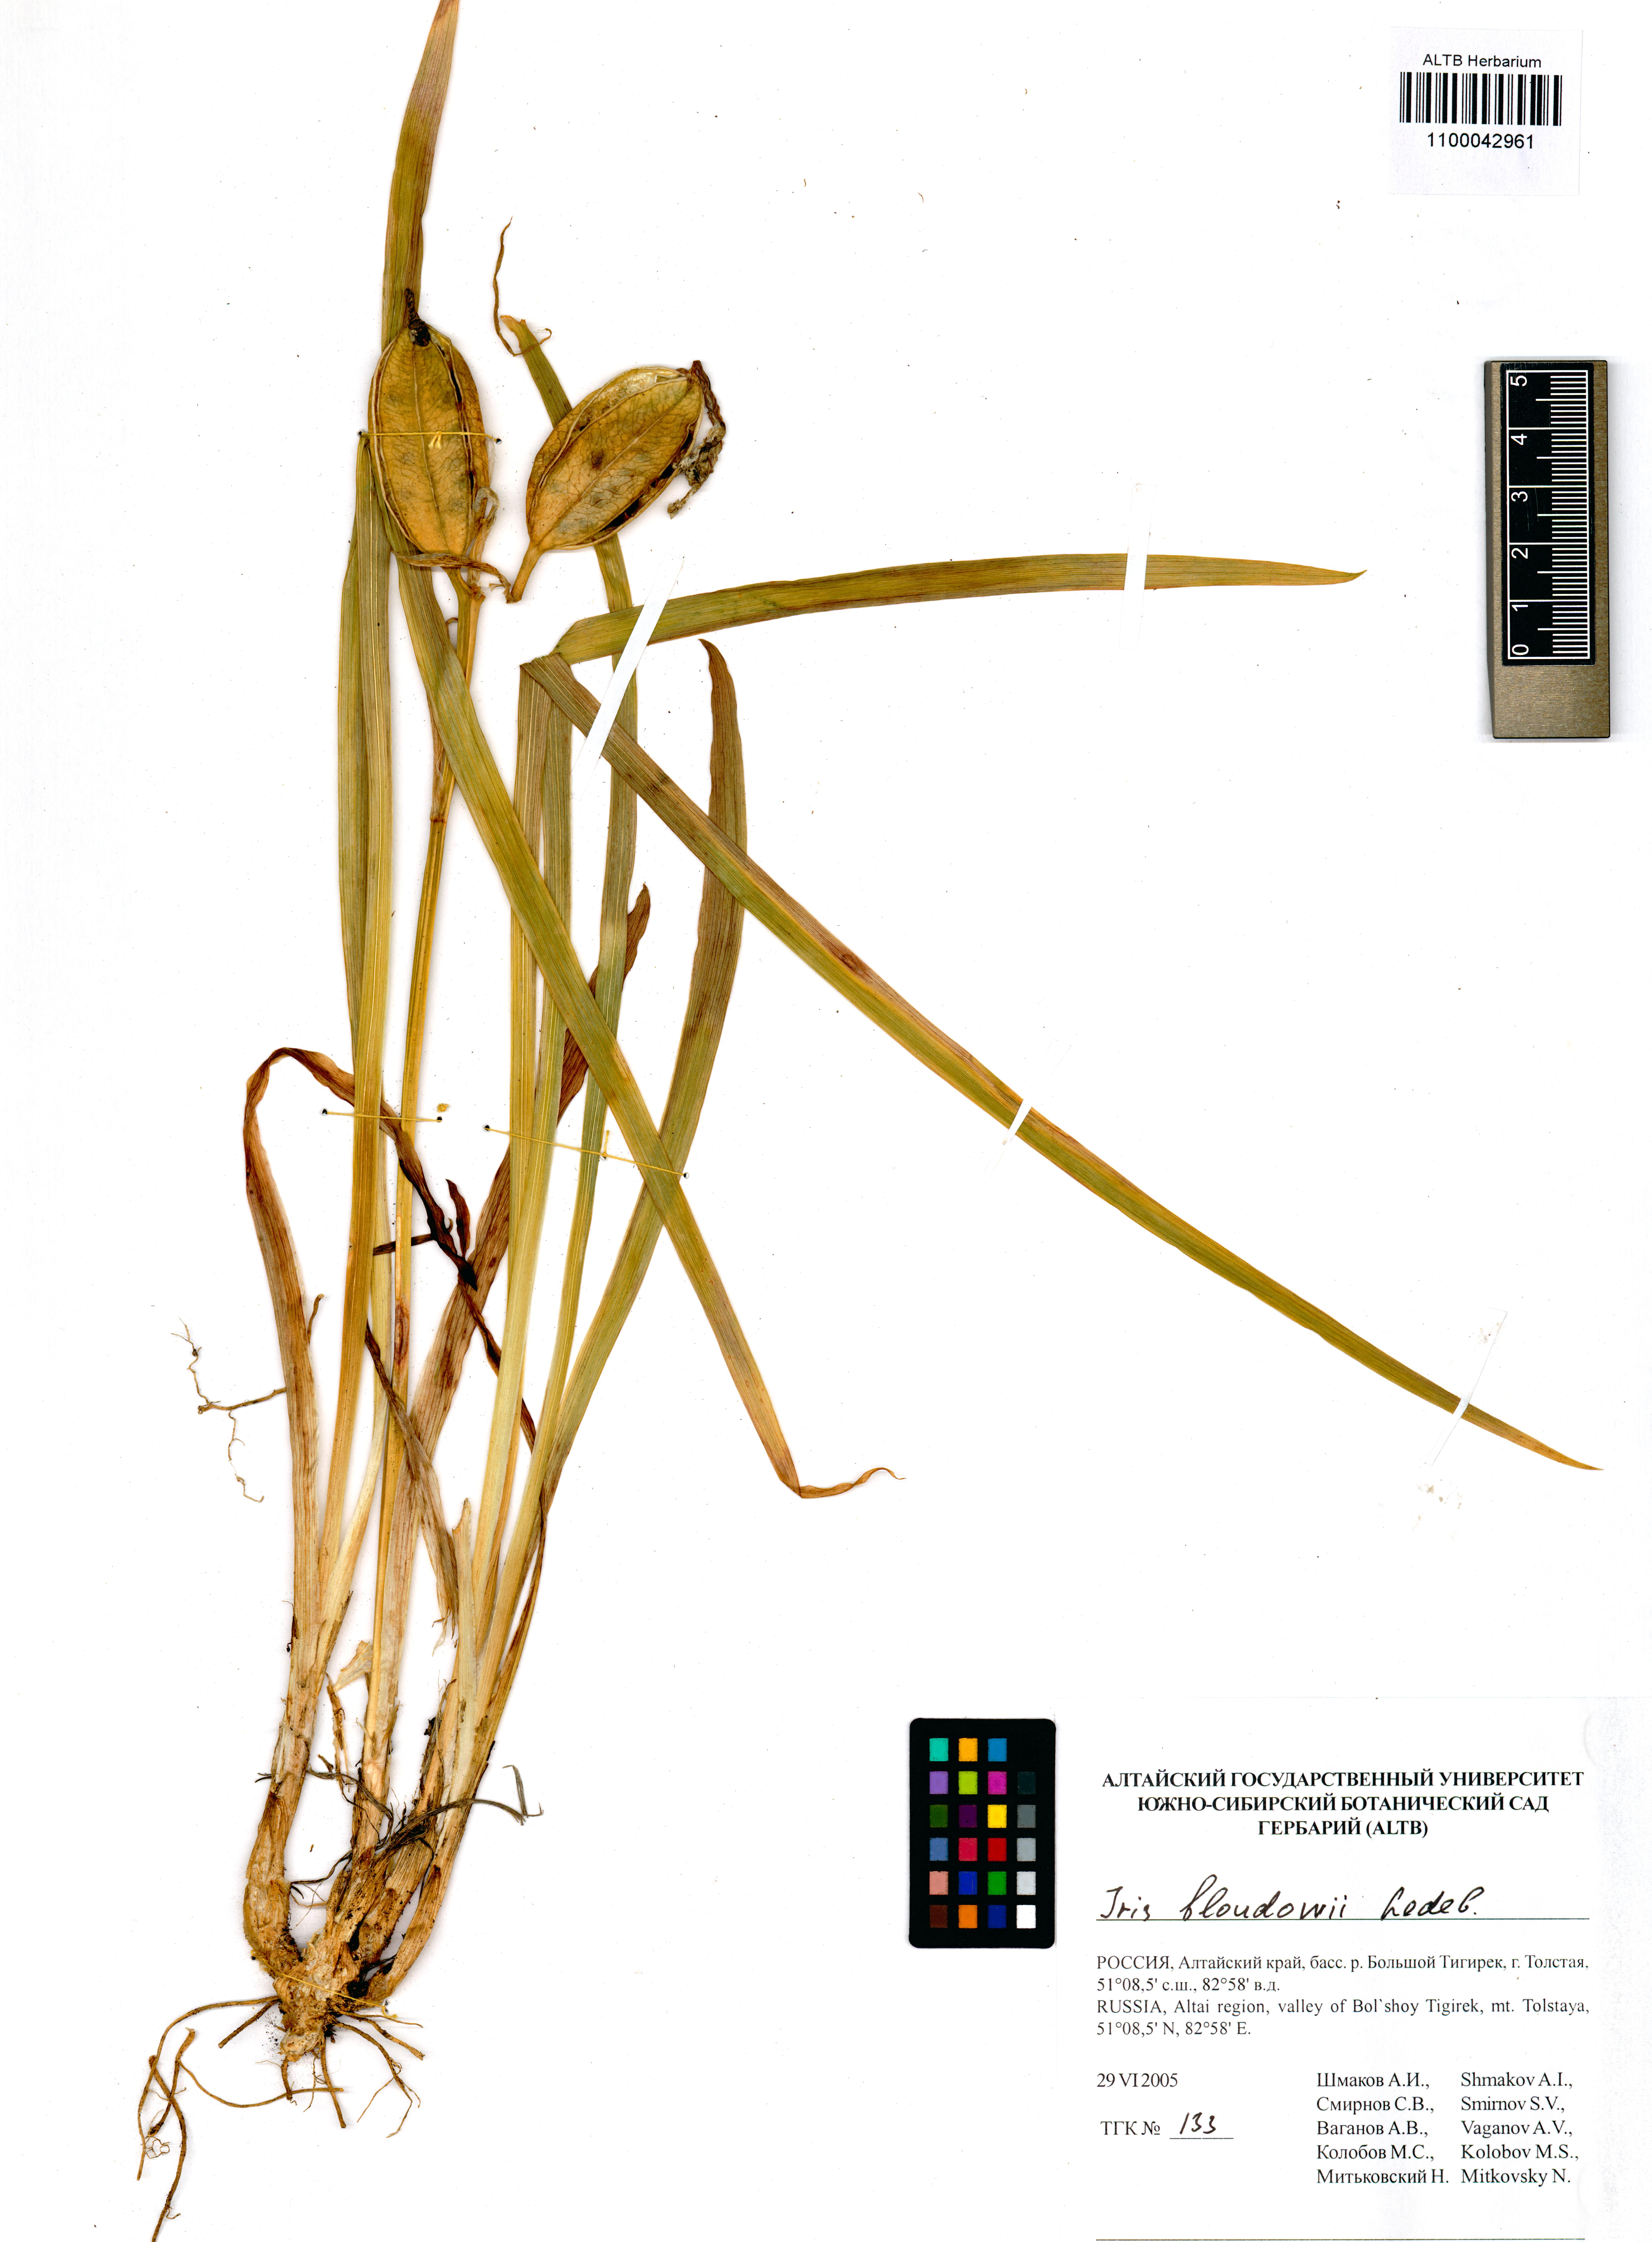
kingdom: Plantae
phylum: Tracheophyta
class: Liliopsida
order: Asparagales
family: Iridaceae
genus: Iris
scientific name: Iris bloudowii
